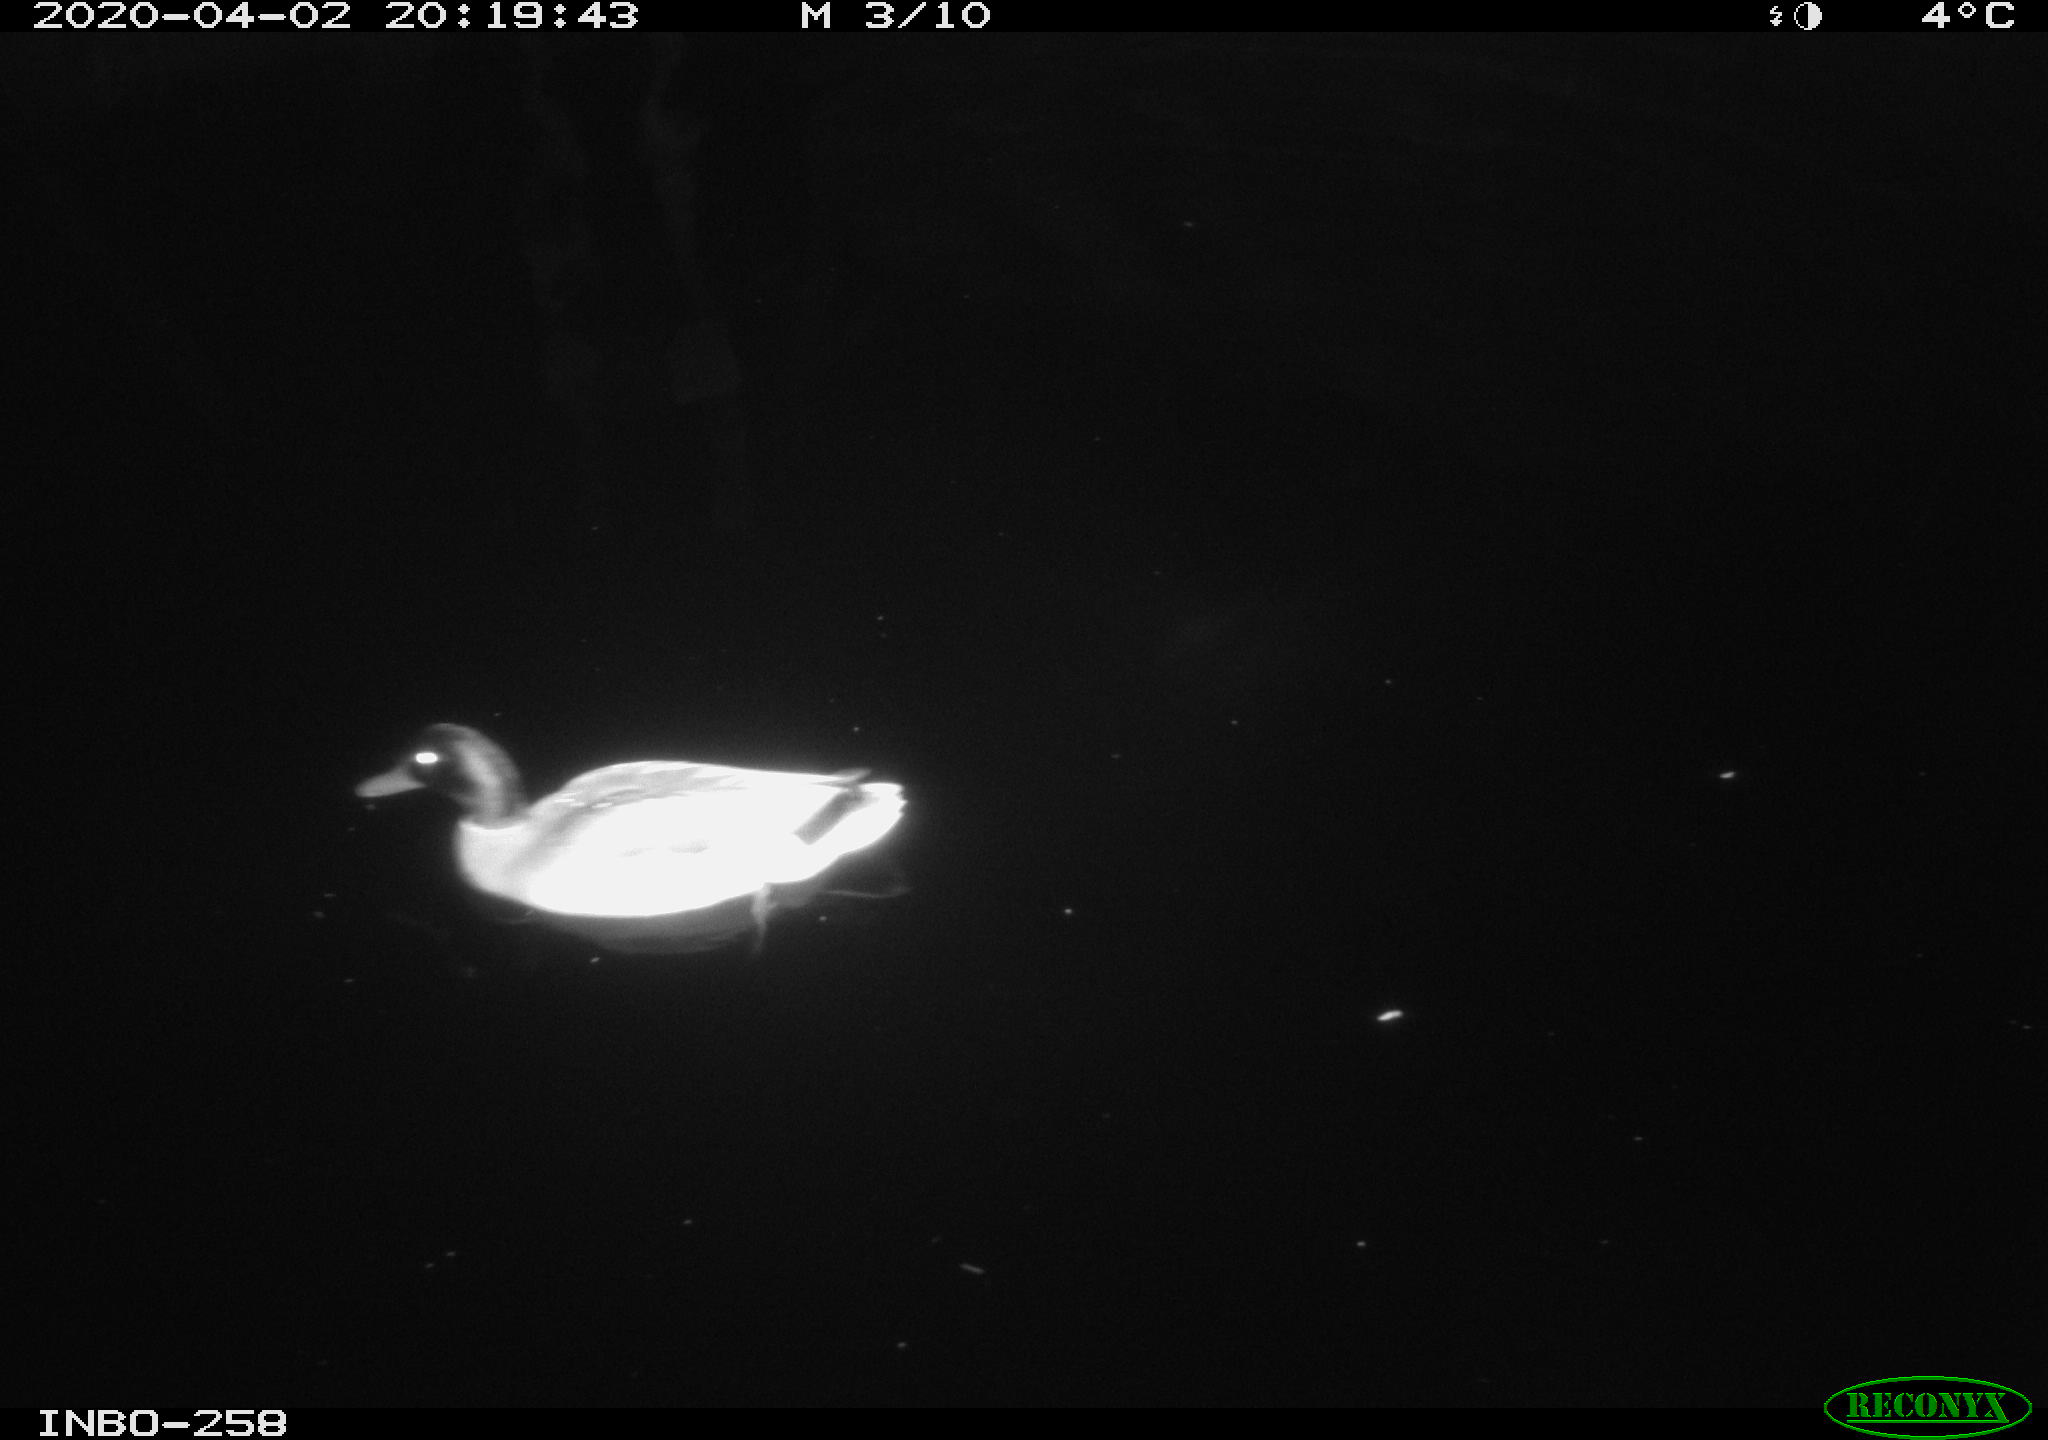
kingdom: Animalia
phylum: Chordata
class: Aves
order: Anseriformes
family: Anatidae
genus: Anas
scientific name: Anas platyrhynchos
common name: Mallard
